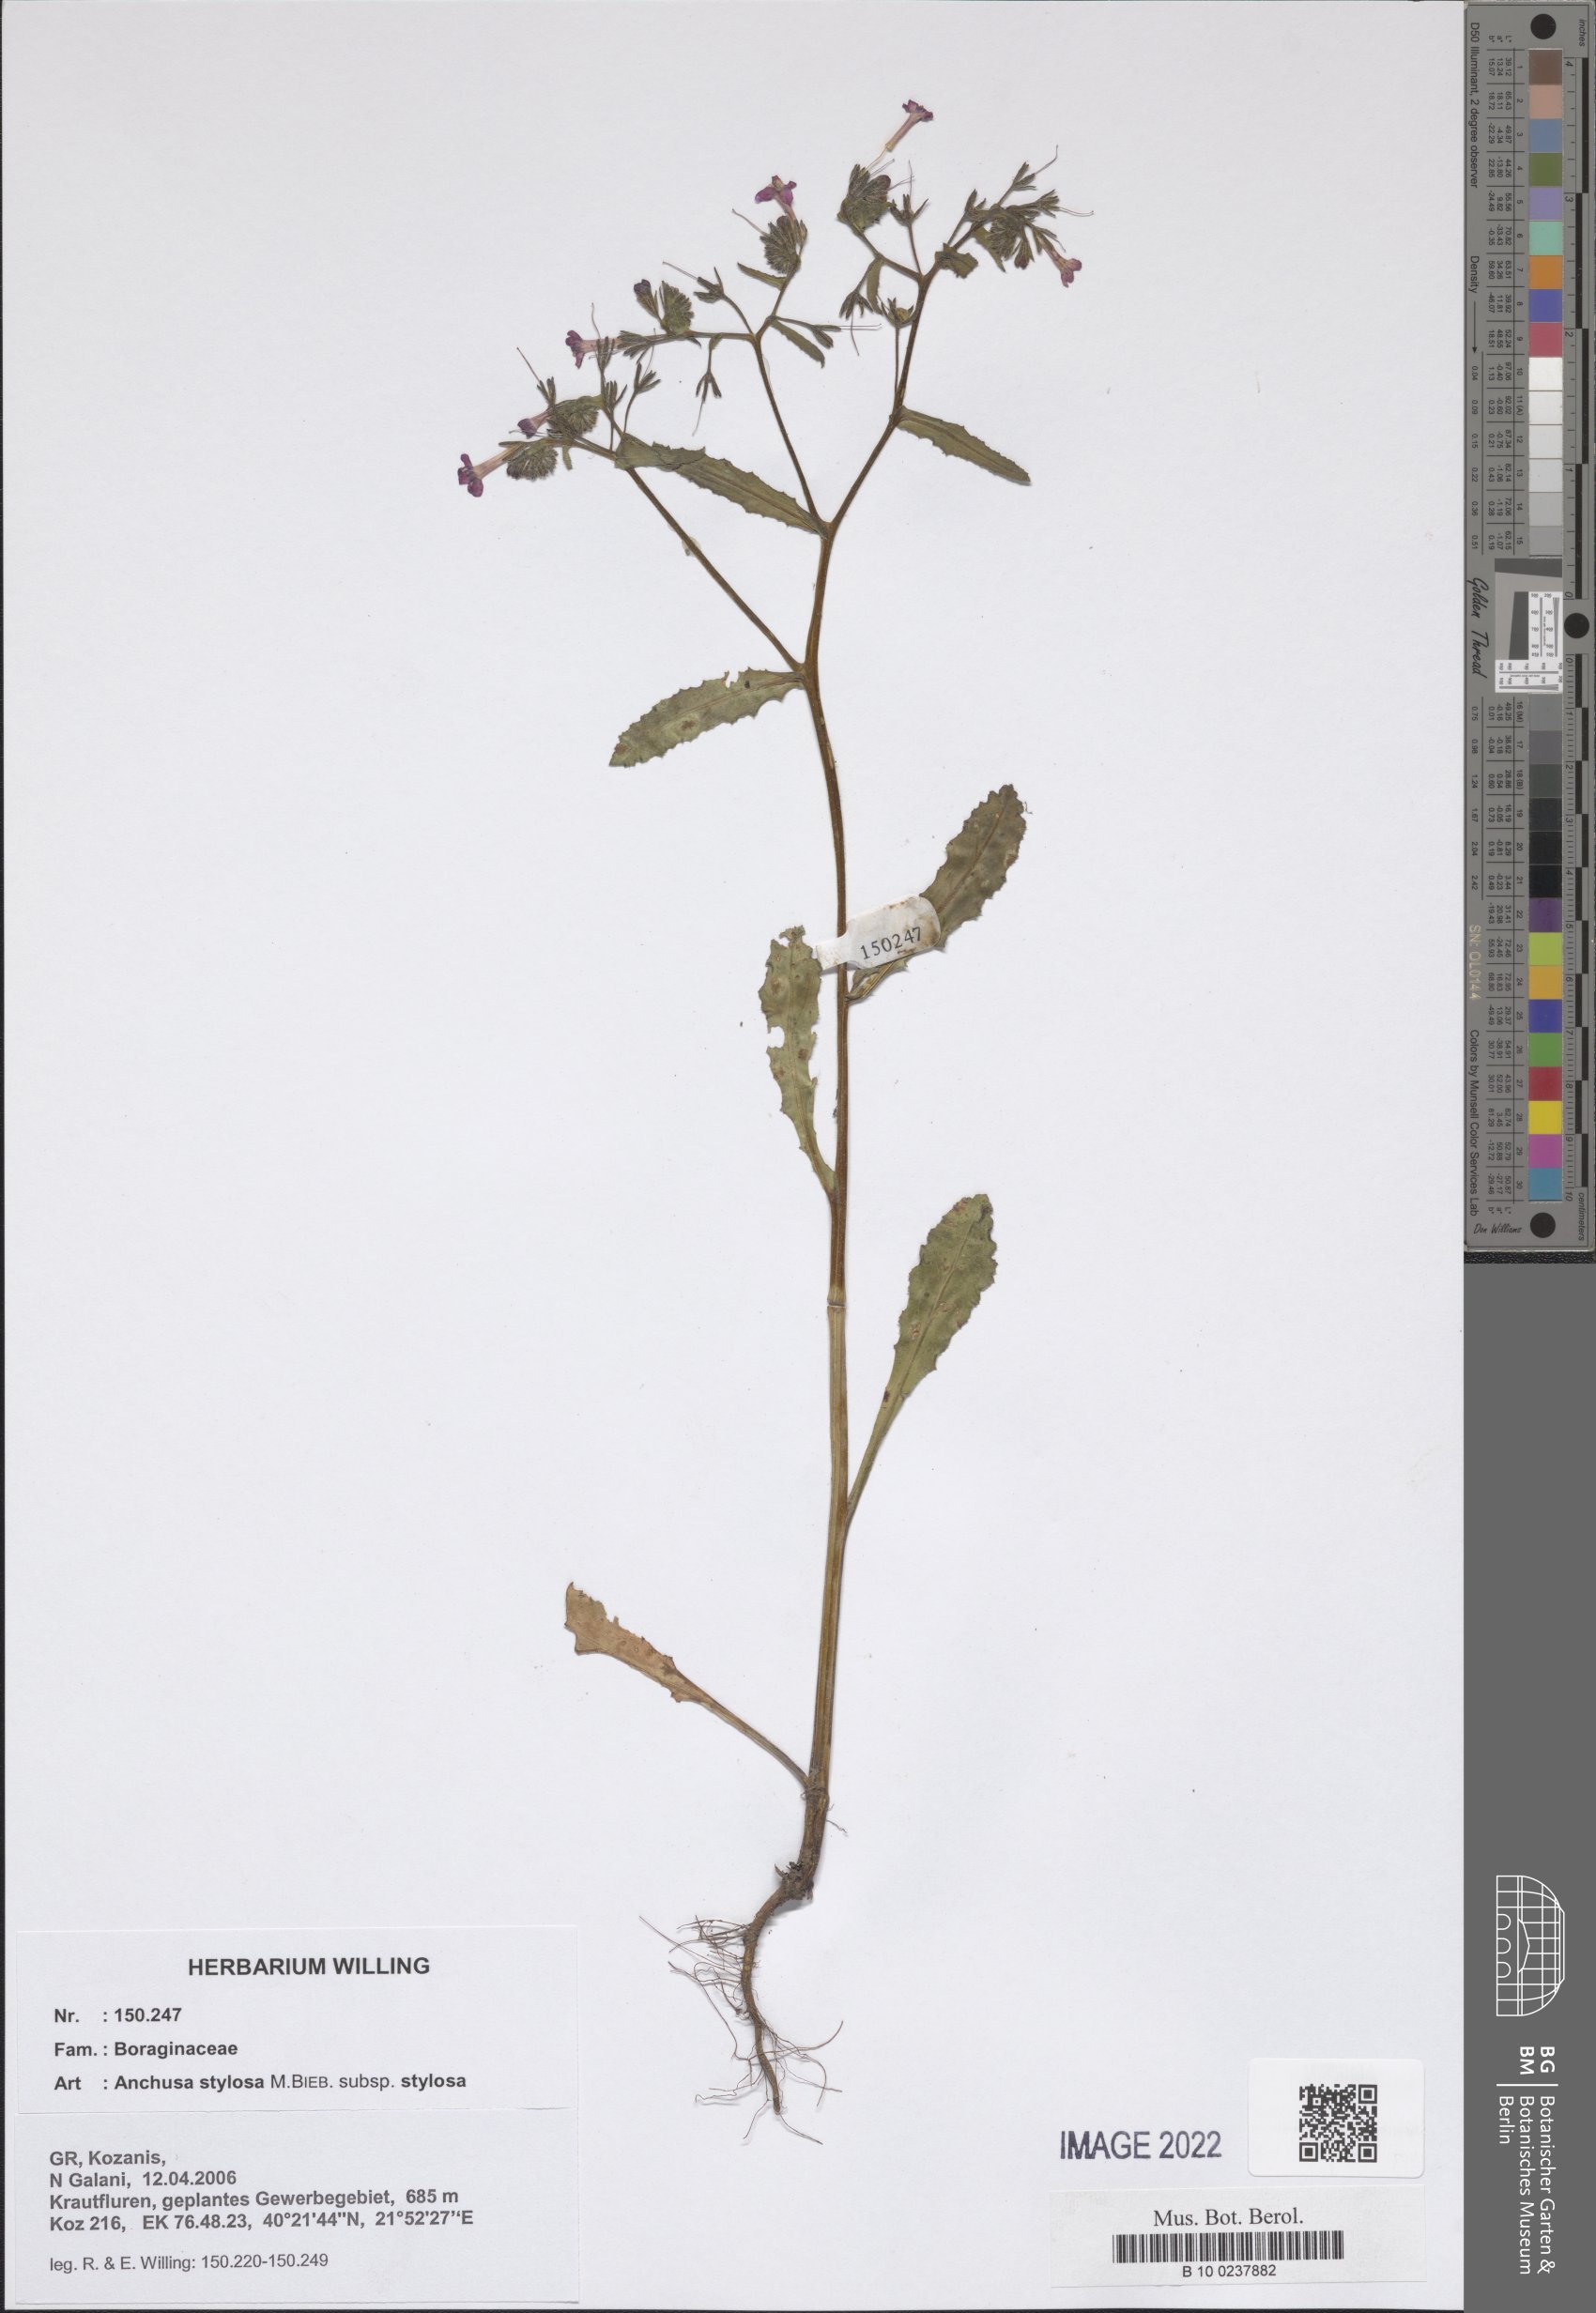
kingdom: Plantae
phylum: Tracheophyta
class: Magnoliopsida
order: Boraginales
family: Boraginaceae
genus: Anchusa
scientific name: Anchusa stylosa
